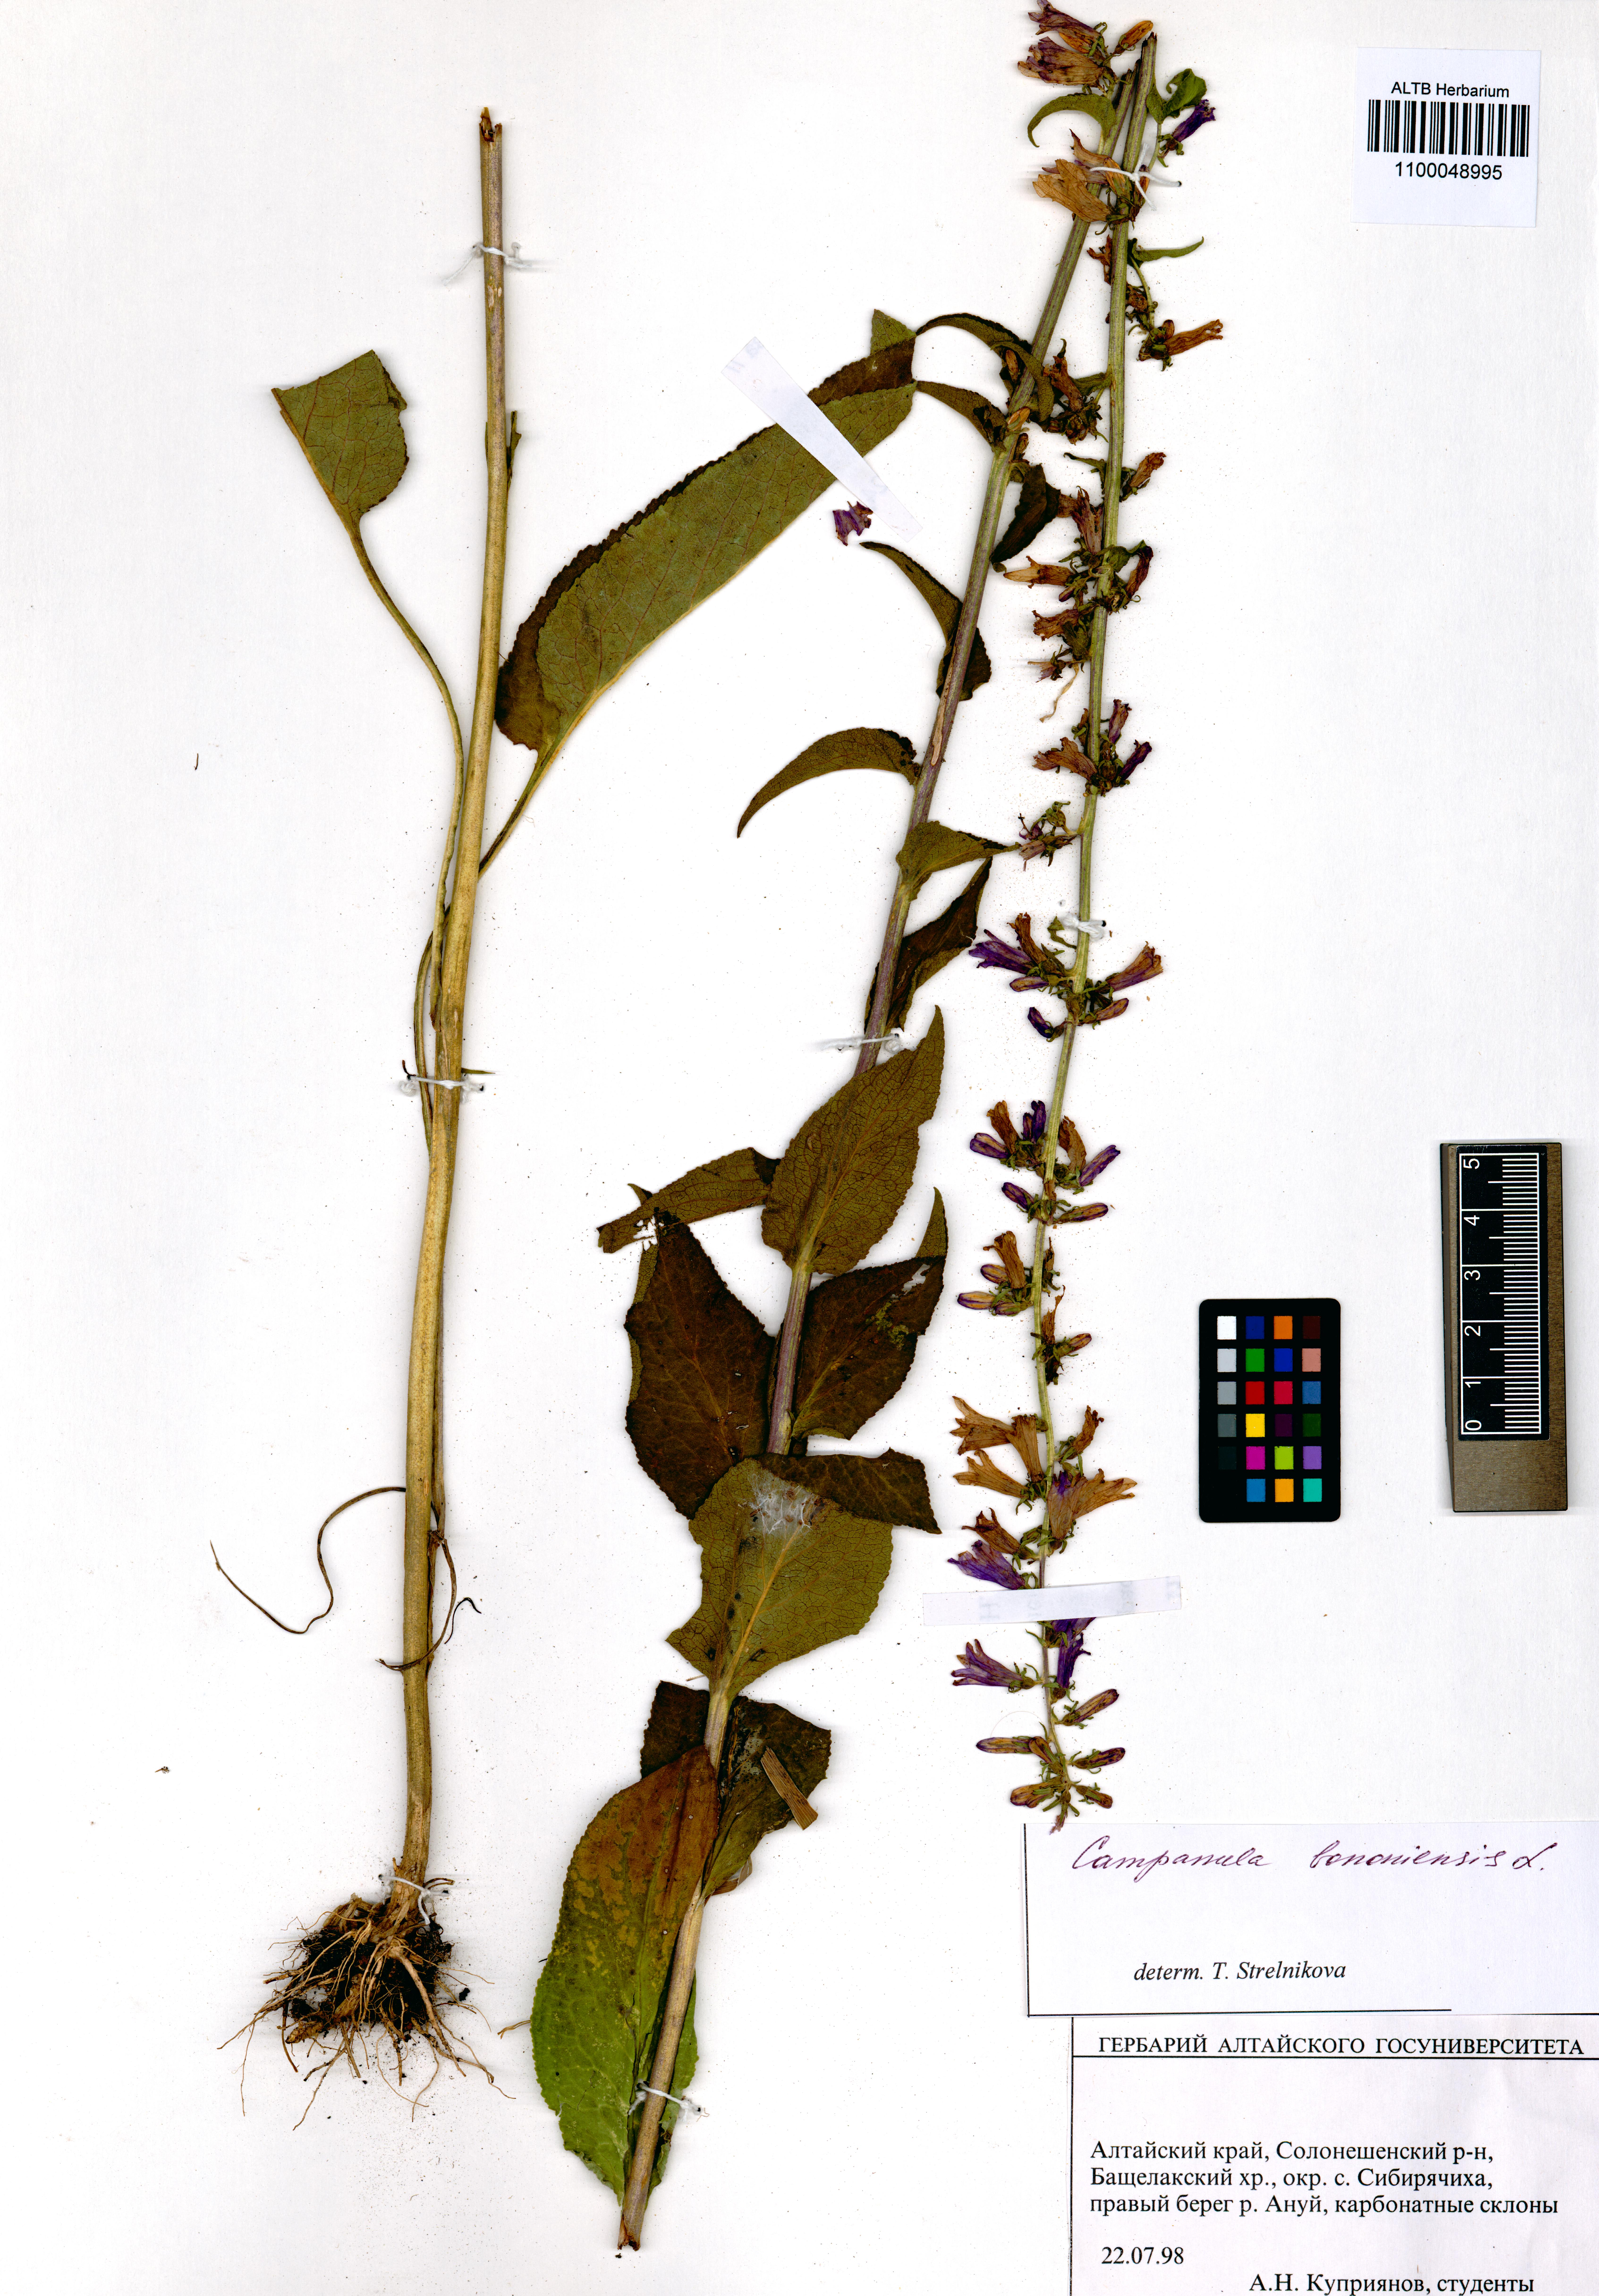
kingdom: Plantae
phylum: Tracheophyta
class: Magnoliopsida
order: Asterales
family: Campanulaceae
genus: Campanula
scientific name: Campanula bononiensis
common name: Pale bellflower
